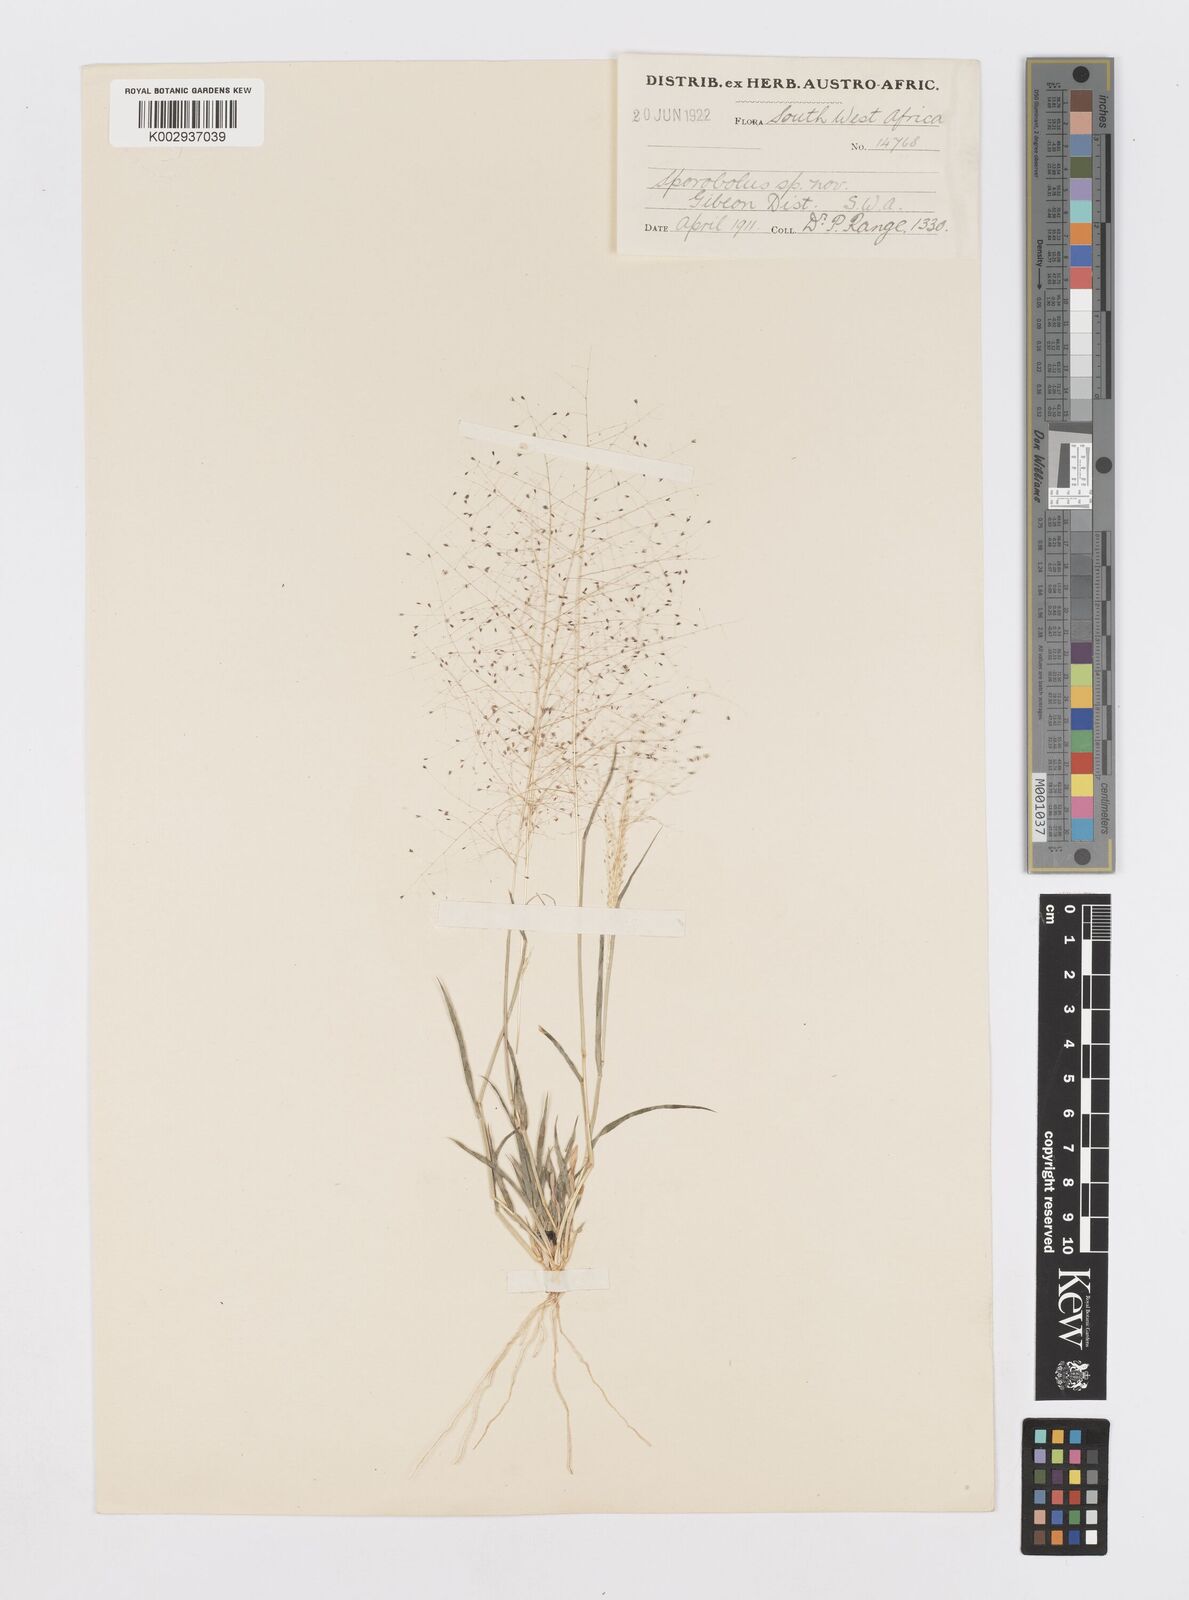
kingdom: Plantae
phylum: Tracheophyta
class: Liliopsida
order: Poales
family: Poaceae
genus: Sporobolus
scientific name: Sporobolus
